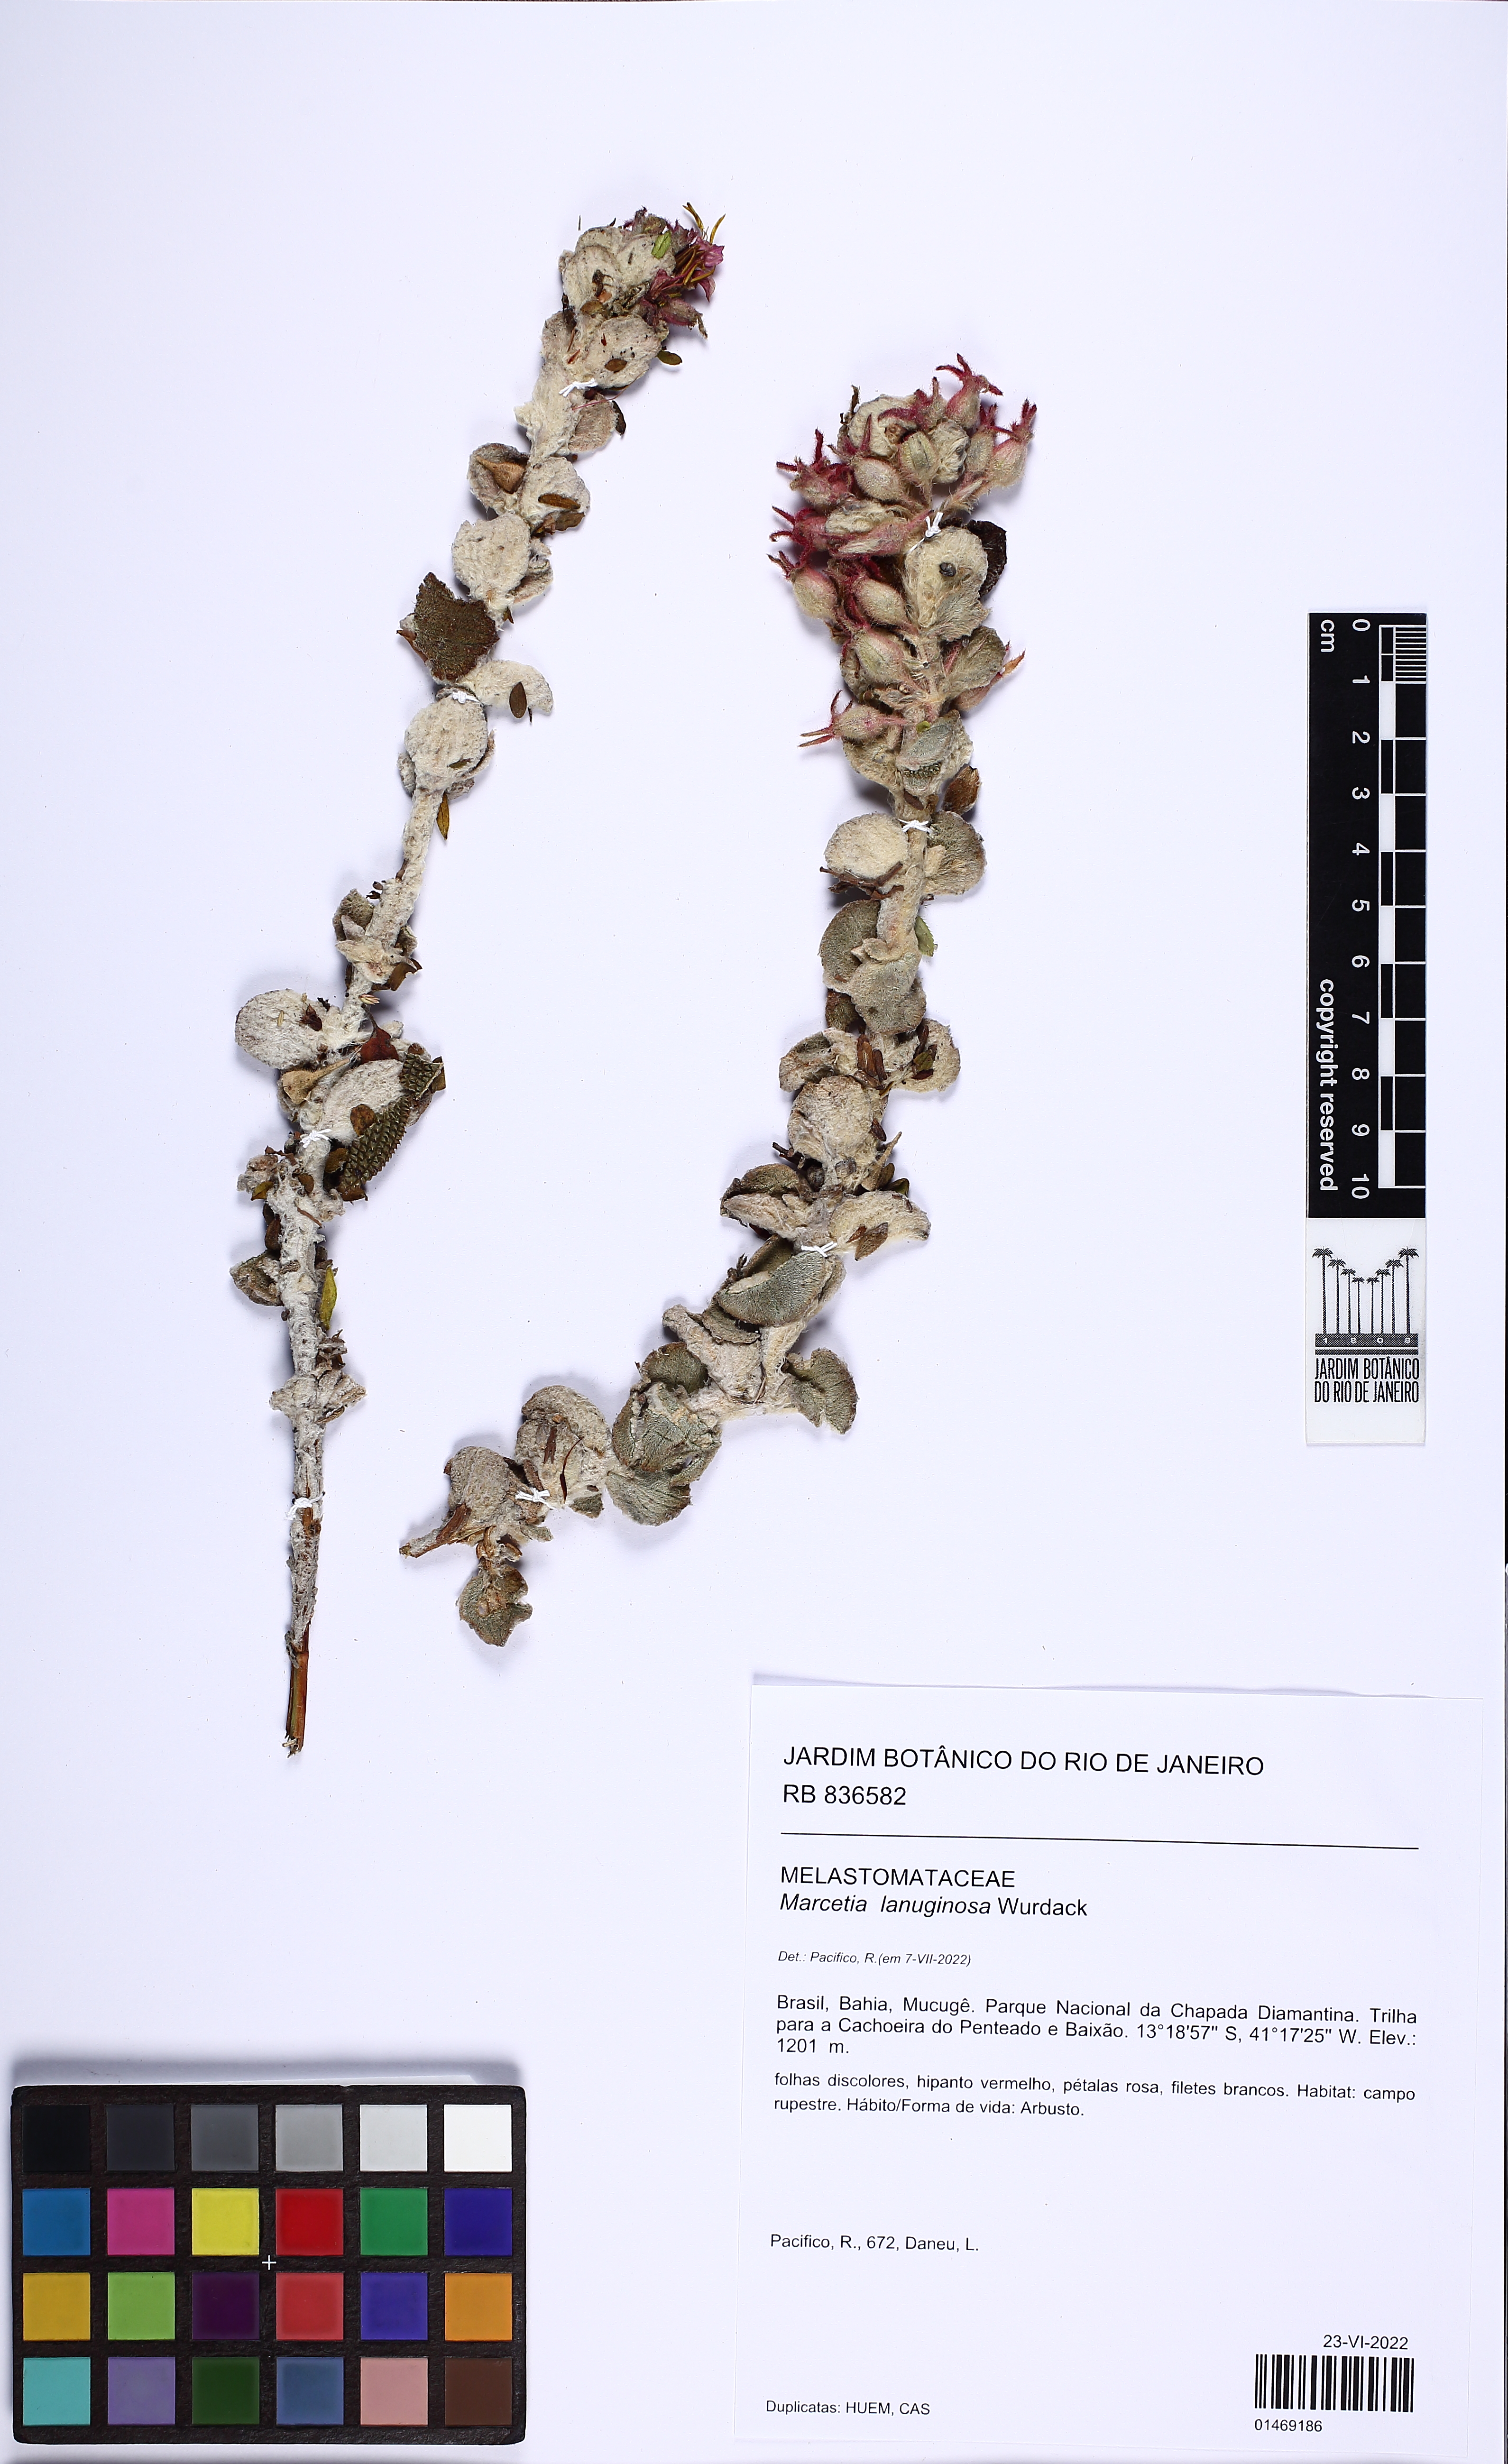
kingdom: Plantae
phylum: Tracheophyta
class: Magnoliopsida
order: Myrtales
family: Melastomataceae
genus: Marcetia
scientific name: Marcetia lanuginosa
